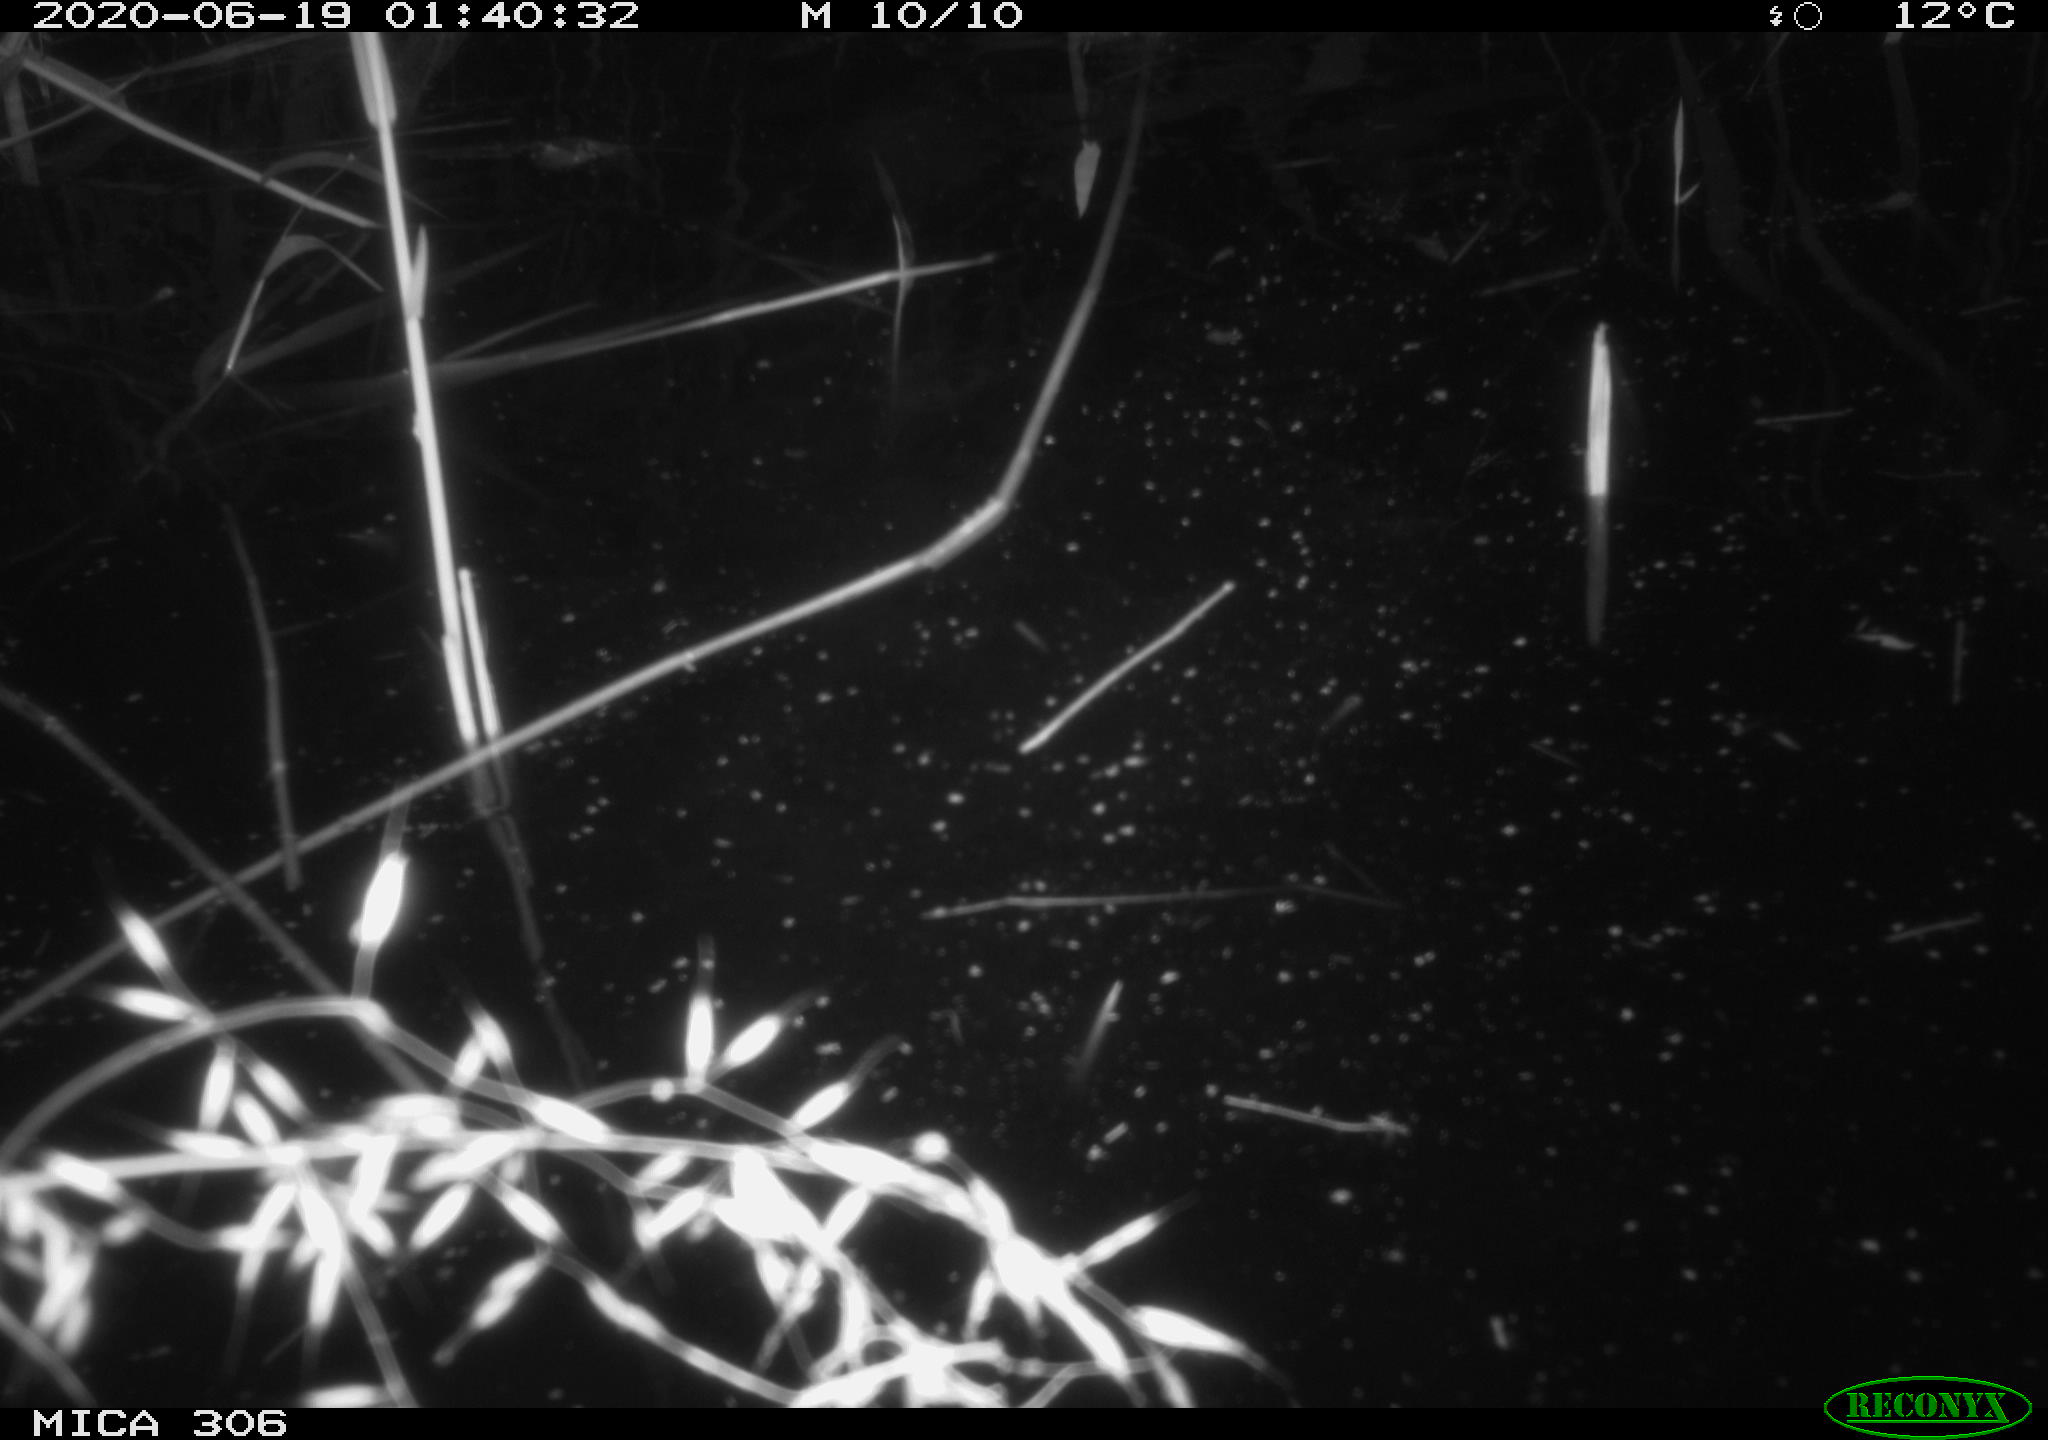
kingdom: Animalia
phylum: Chordata
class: Mammalia
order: Rodentia
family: Cricetidae
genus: Ondatra
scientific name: Ondatra zibethicus
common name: Muskrat
